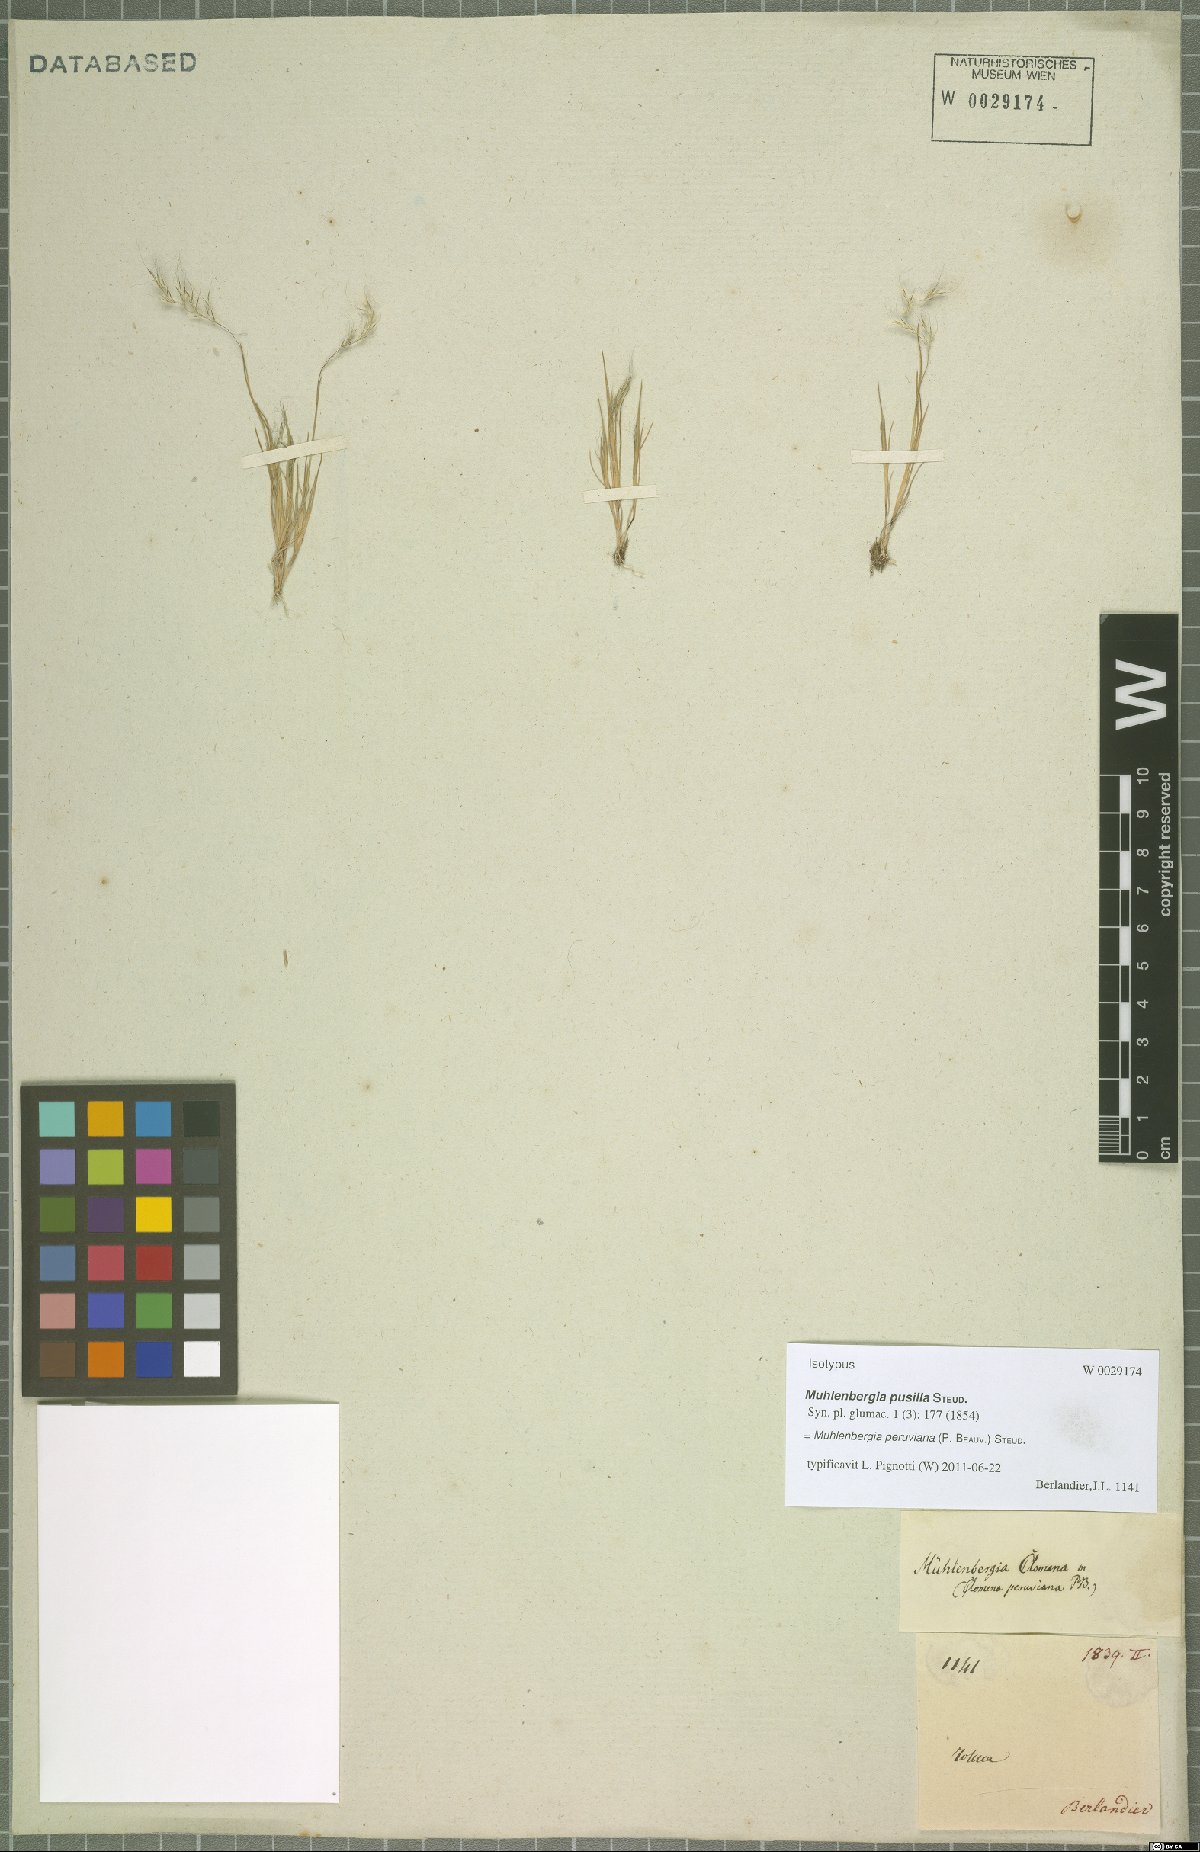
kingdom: Plantae
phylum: Tracheophyta
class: Liliopsida
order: Poales
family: Poaceae
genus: Muhlenbergia
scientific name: Muhlenbergia peruviana
